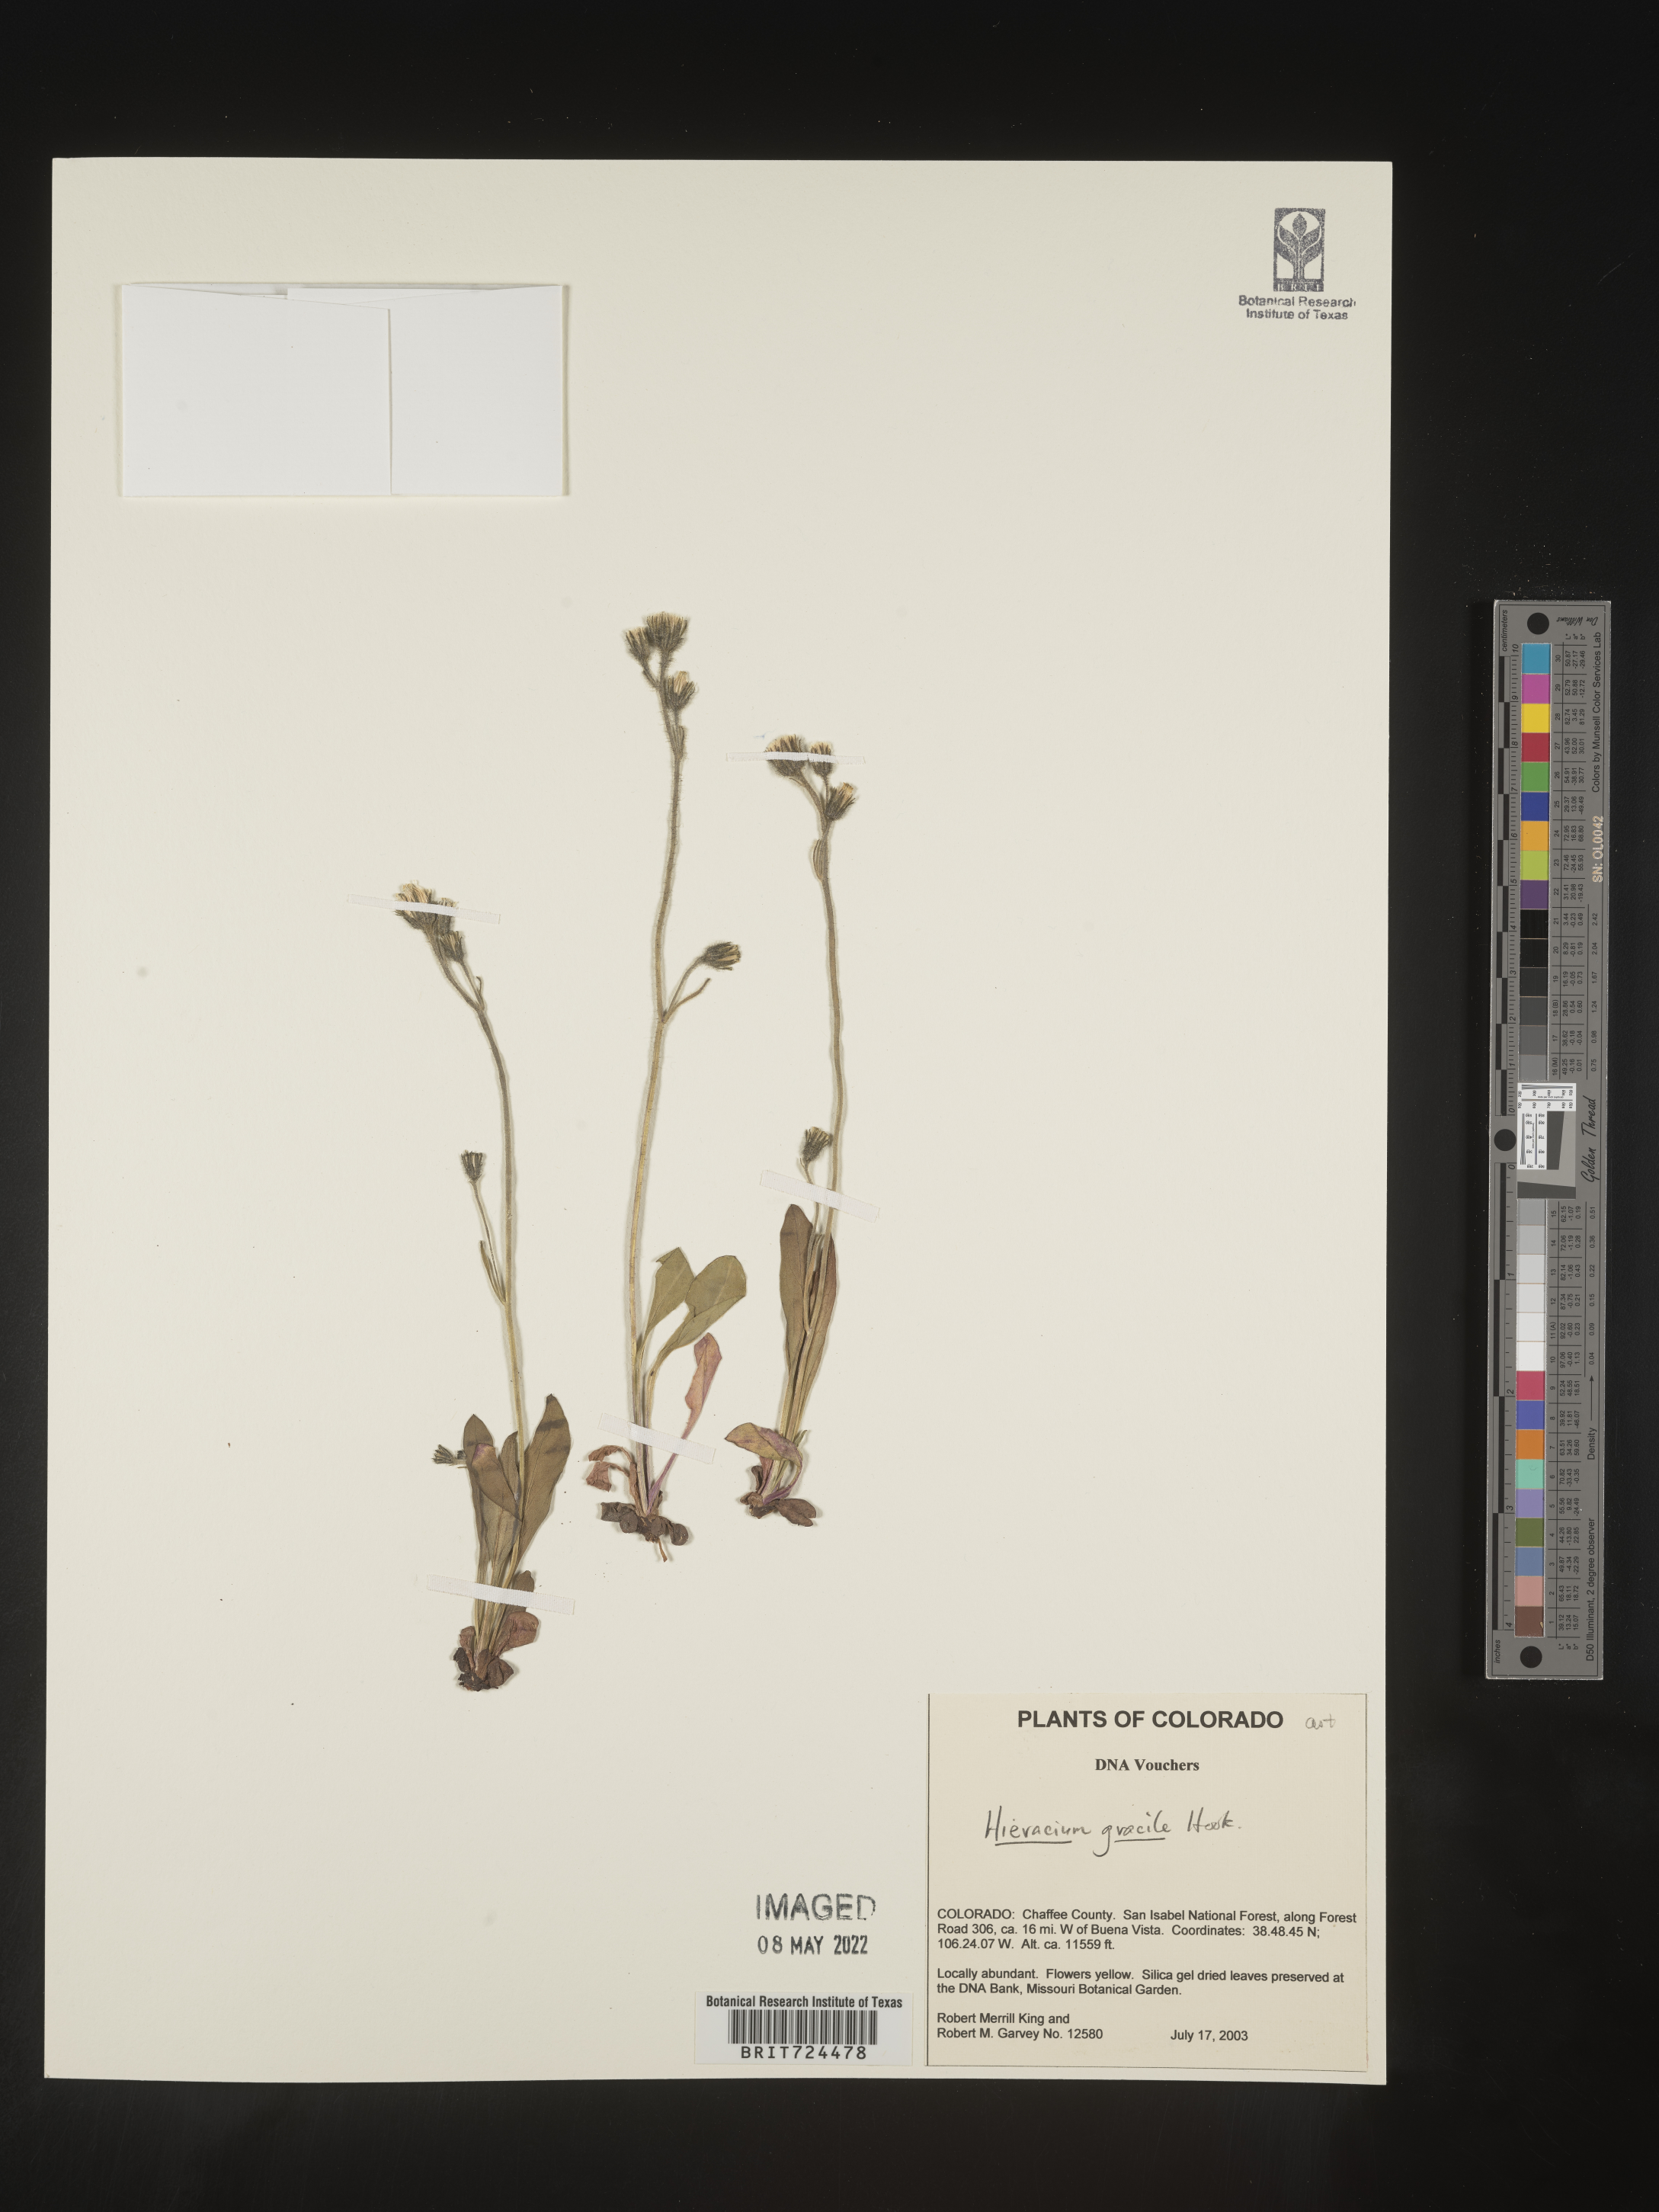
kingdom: Plantae
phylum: Tracheophyta
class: Magnoliopsida
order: Asterales
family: Asteraceae
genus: Hieracium
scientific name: Hieracium
